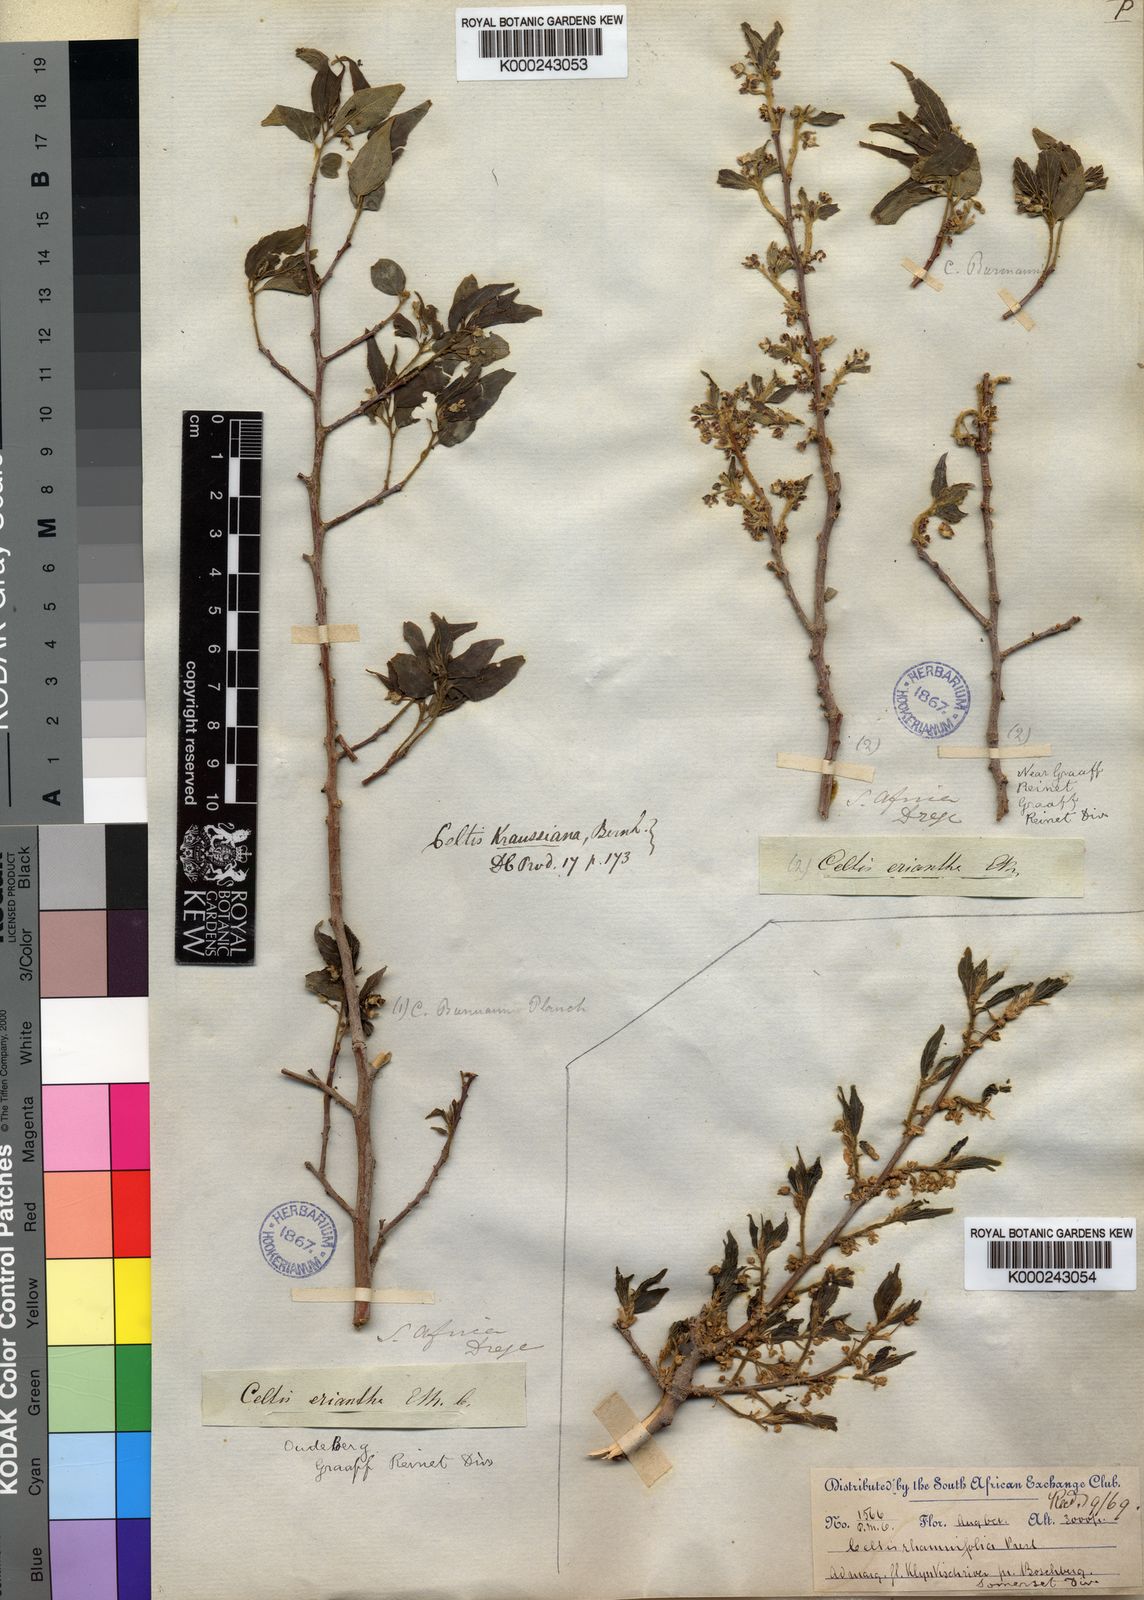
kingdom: Plantae
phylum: Tracheophyta
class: Magnoliopsida
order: Rosales
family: Cannabaceae
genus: Celtis
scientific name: Celtis africana
